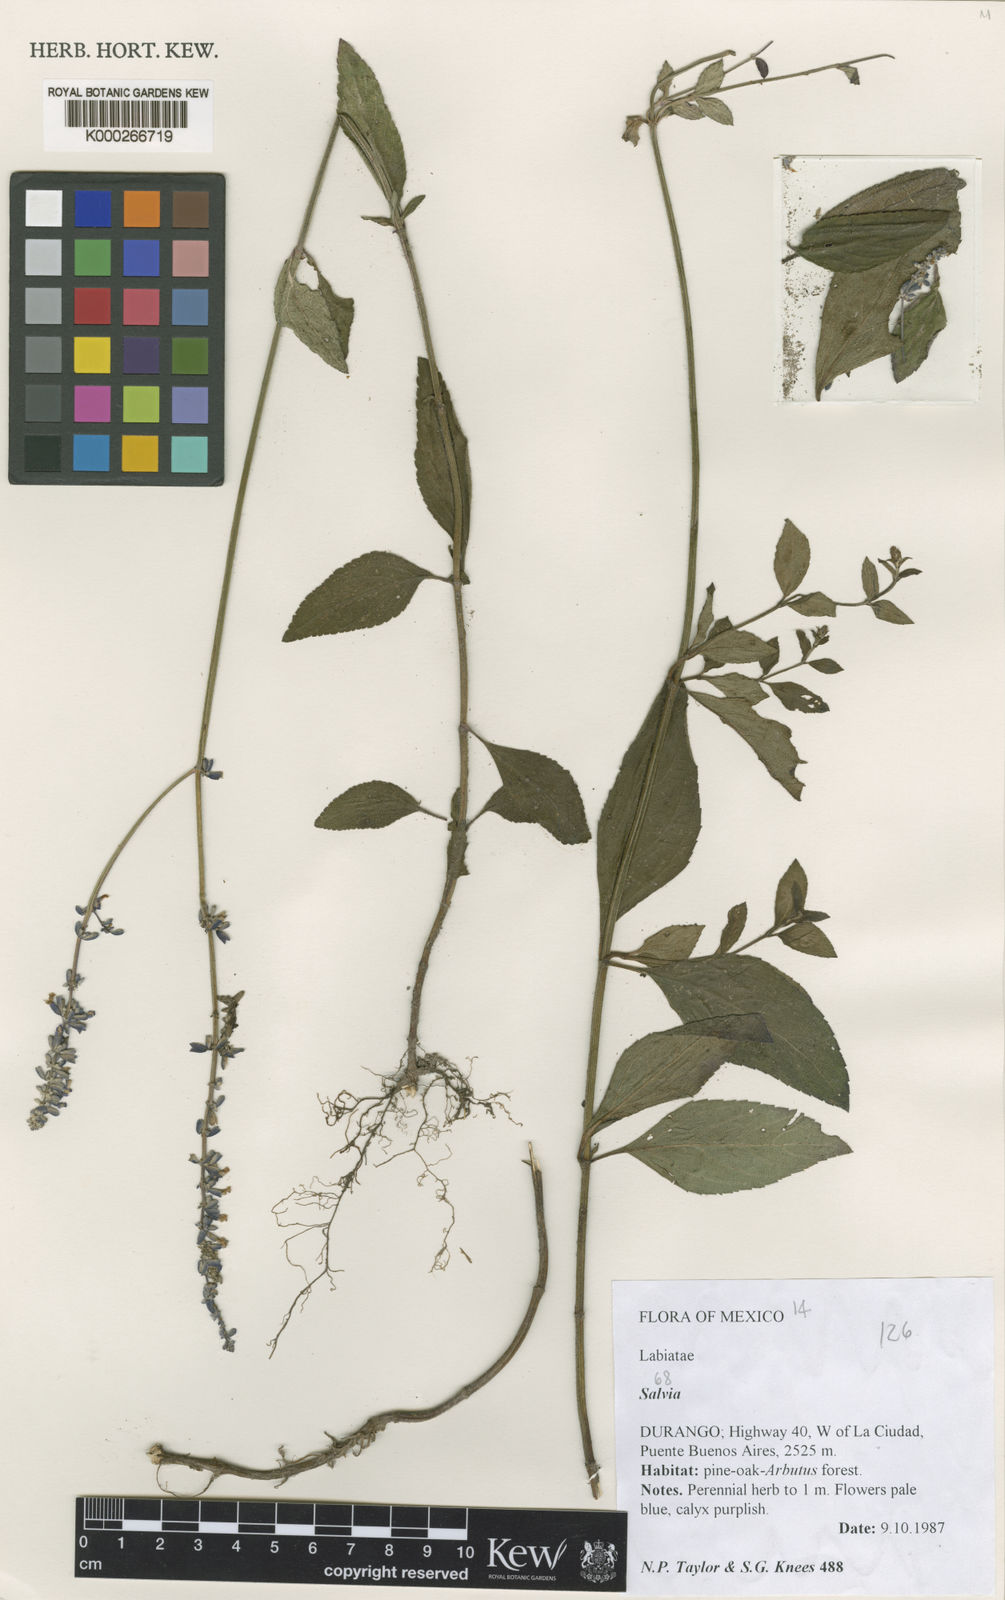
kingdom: Plantae
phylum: Tracheophyta
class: Magnoliopsida
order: Lamiales
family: Lamiaceae
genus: Salvia
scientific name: Salvia lavanduloides
